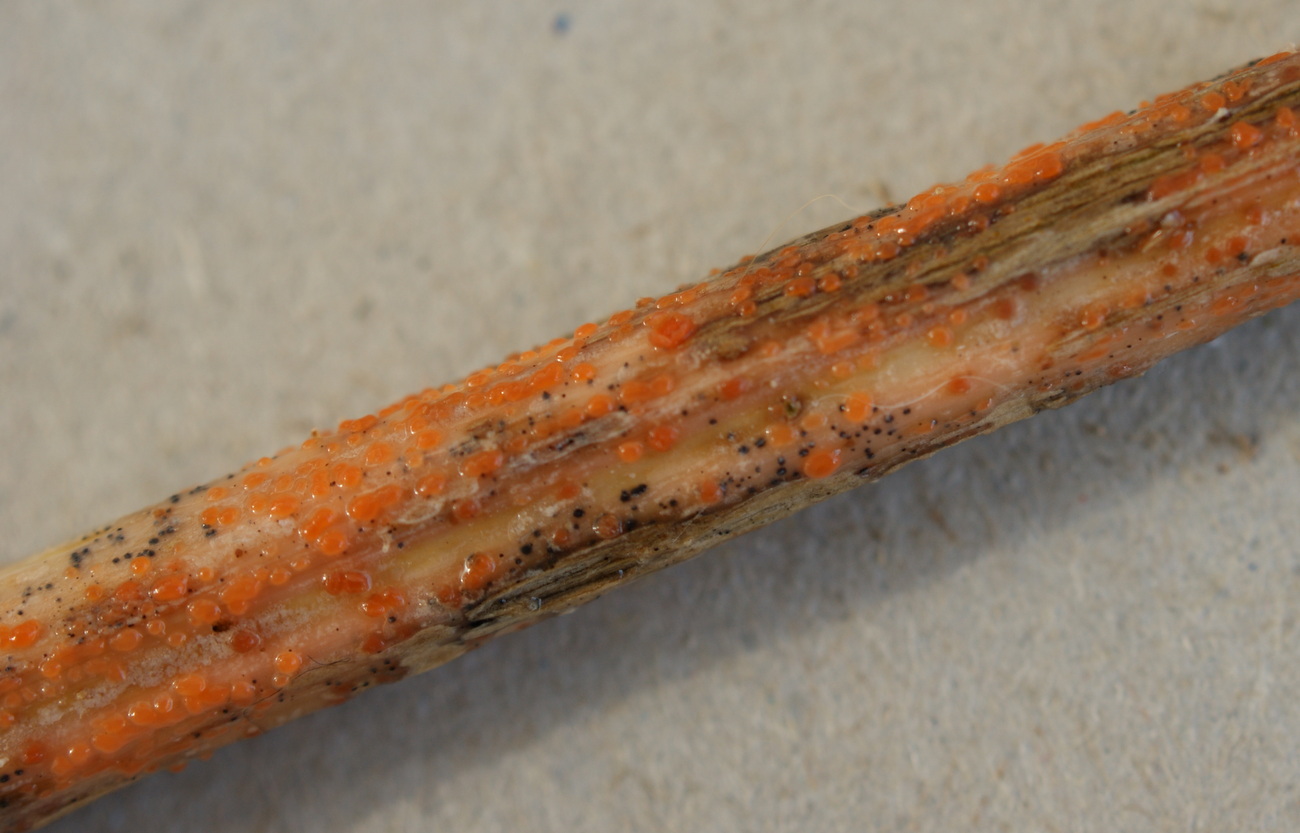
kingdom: Fungi
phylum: Ascomycota
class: Leotiomycetes
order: Helotiales
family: Calloriaceae
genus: Calloria
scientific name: Calloria urticae
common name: nælde-orangeskive
